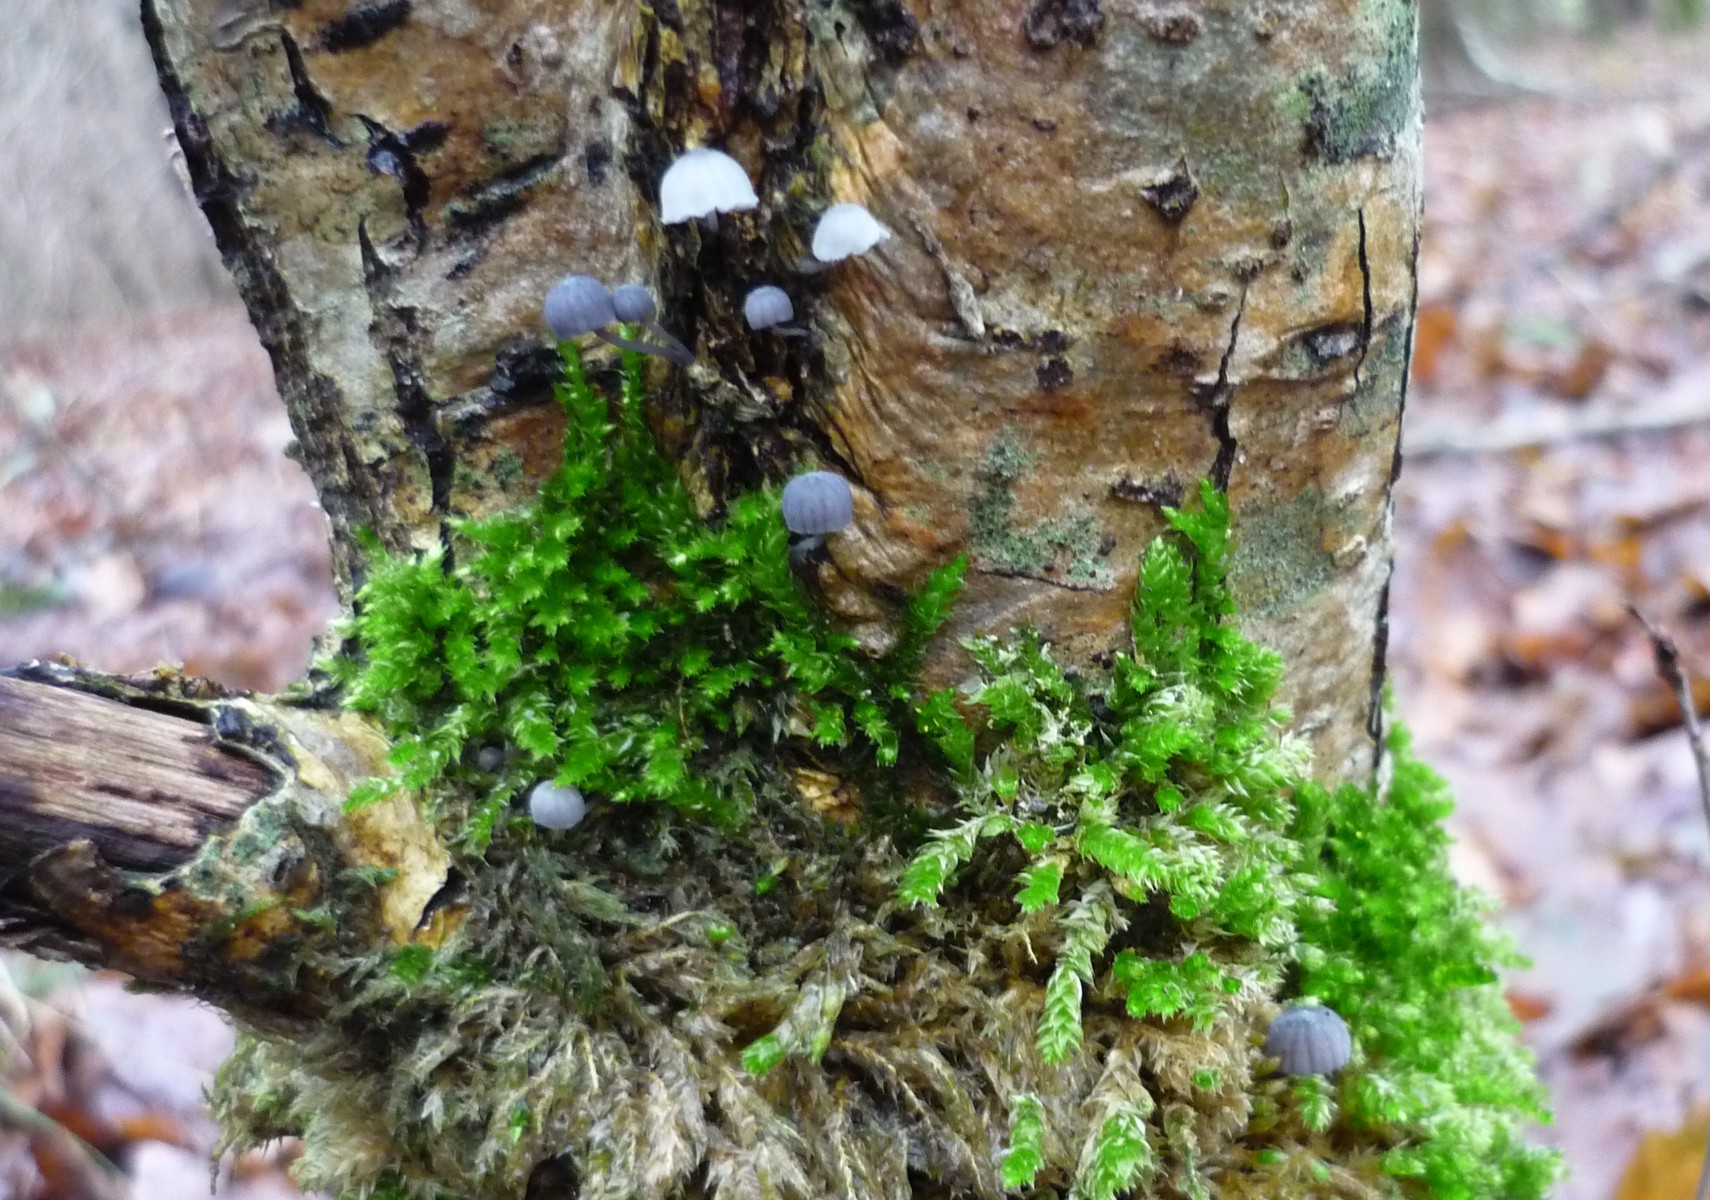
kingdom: Fungi
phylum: Basidiomycota
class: Agaricomycetes
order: Agaricales
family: Mycenaceae
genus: Mycena
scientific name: Mycena pseudocorticola
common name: gråblå bark-huesvamp
